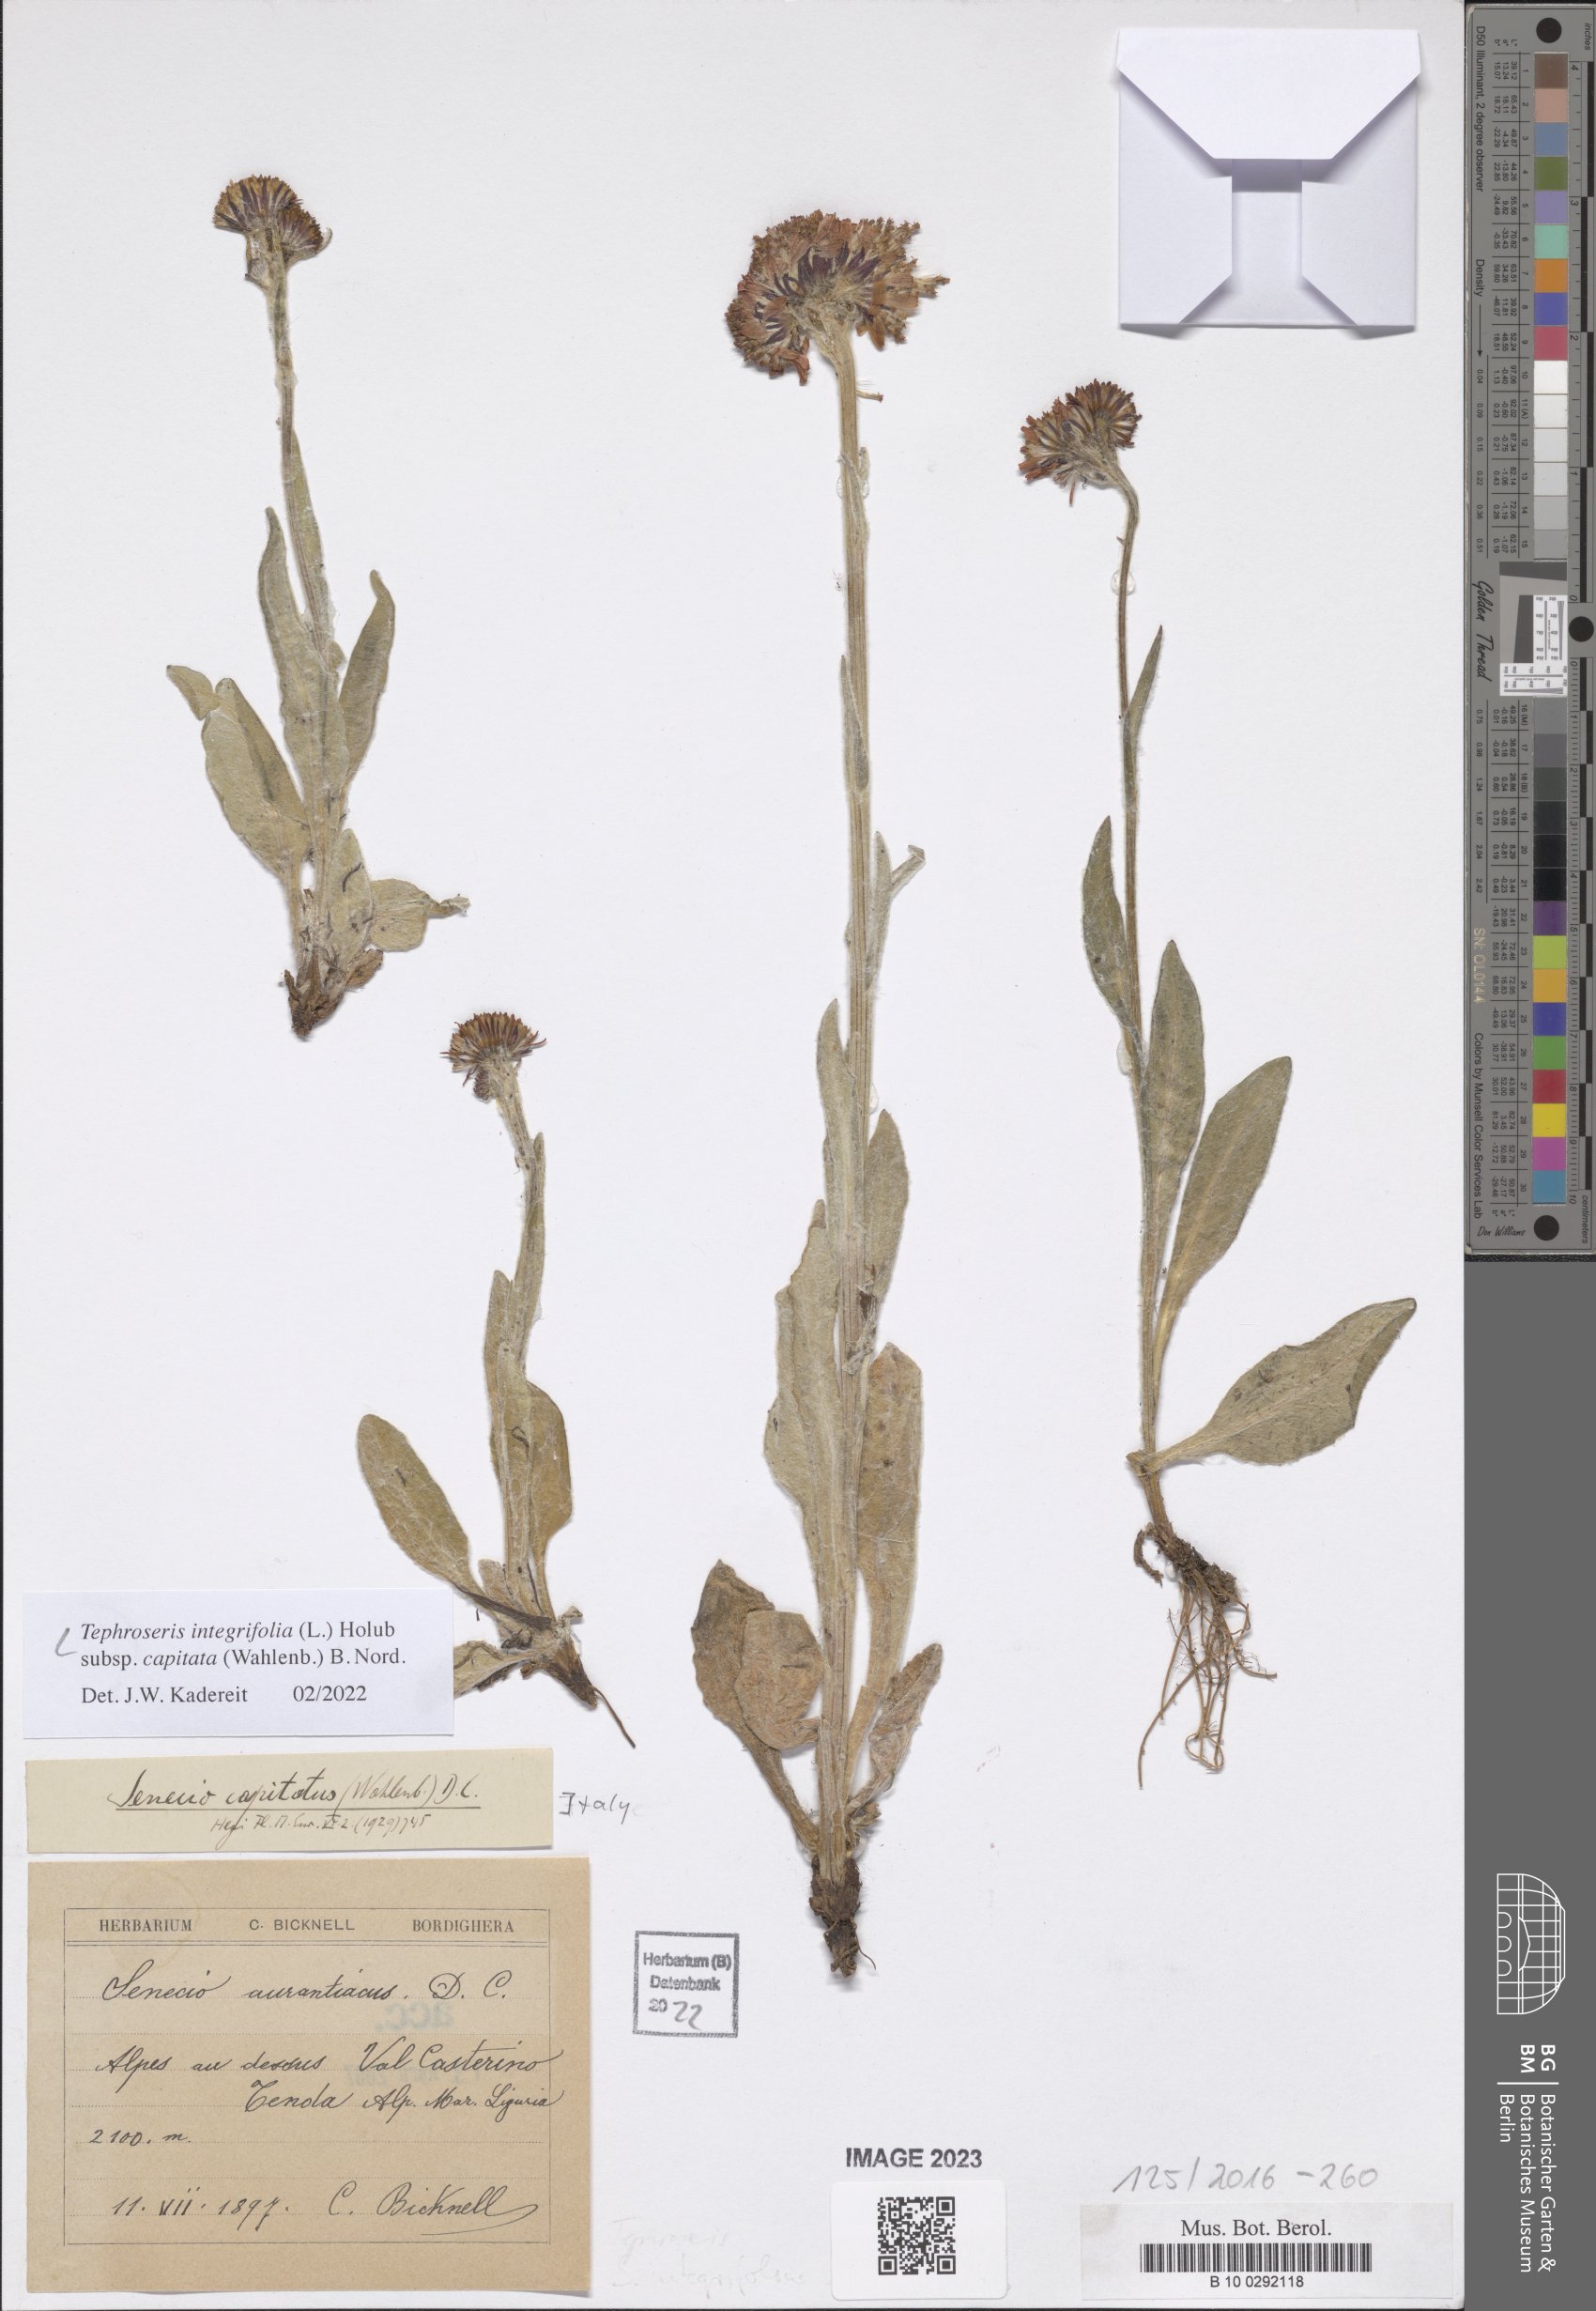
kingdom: Plantae
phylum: Tracheophyta
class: Magnoliopsida
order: Asterales
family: Asteraceae
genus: Tephroseris
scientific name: Tephroseris integrifolia
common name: Field fleawort
